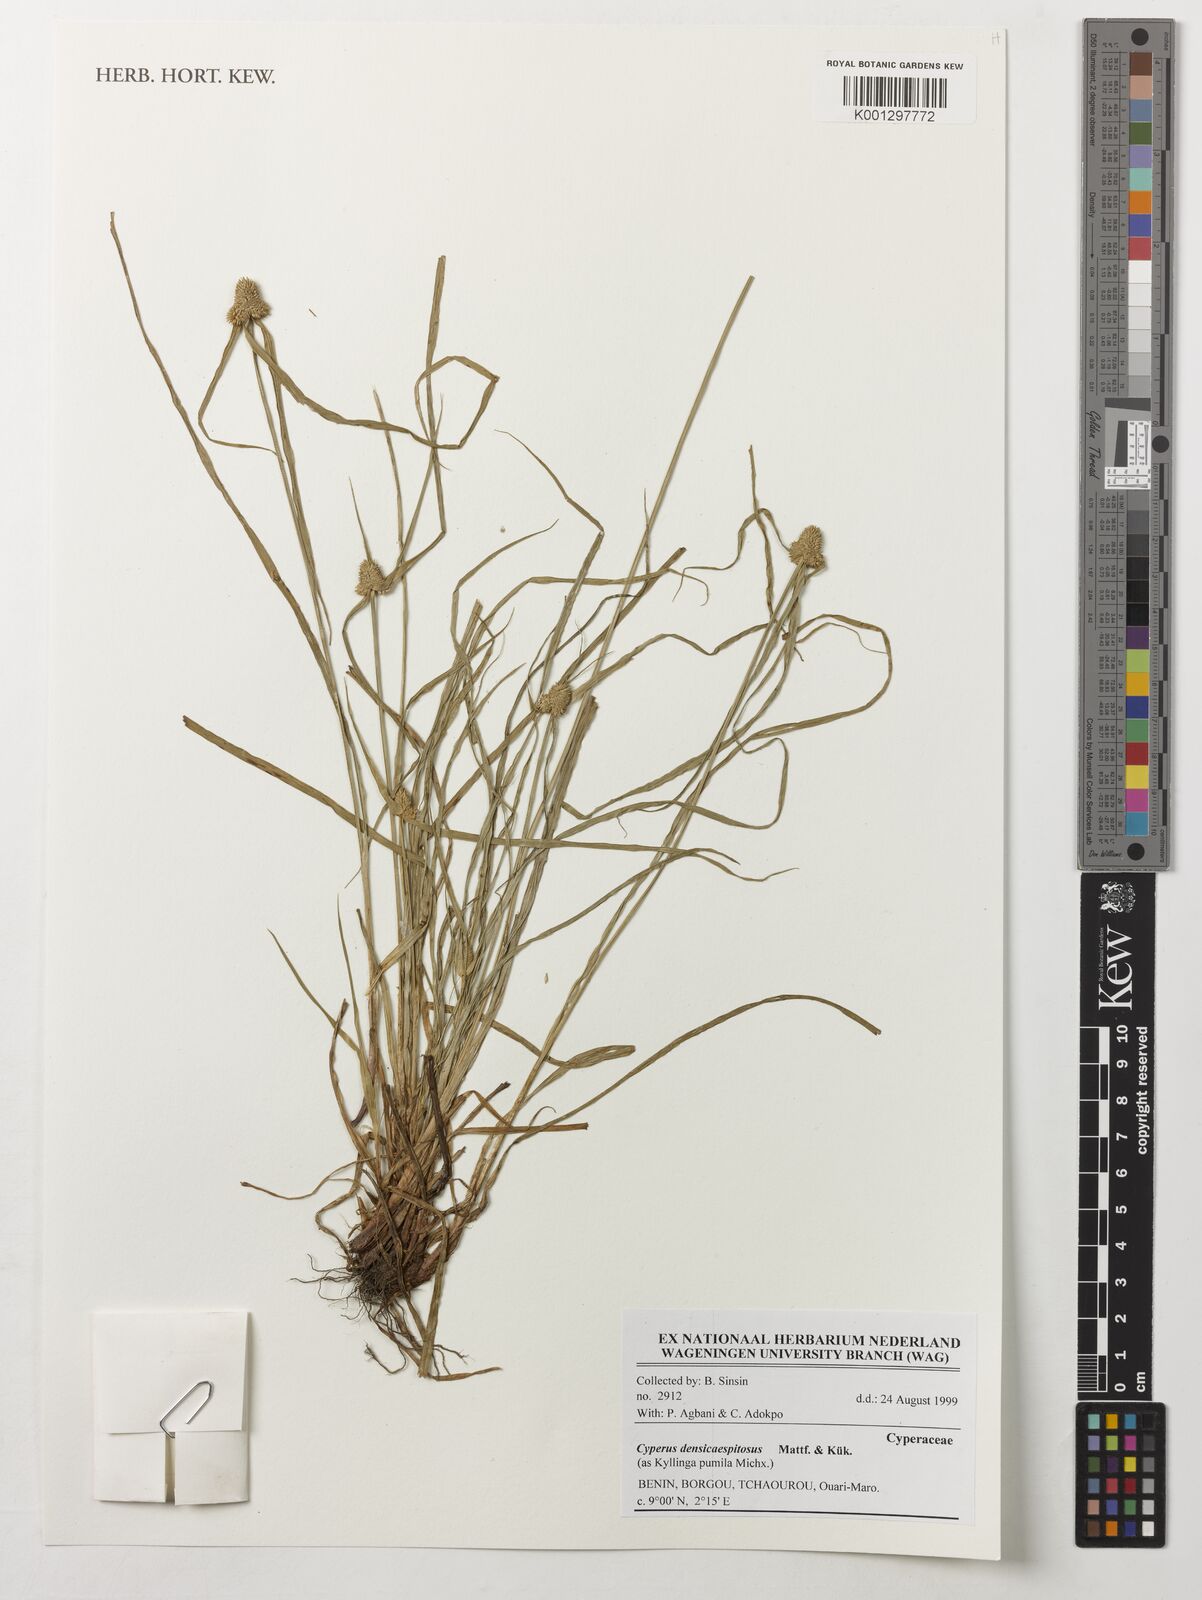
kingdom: Plantae
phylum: Tracheophyta
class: Liliopsida
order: Poales
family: Cyperaceae
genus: Cyperus
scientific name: Cyperus hortensis
